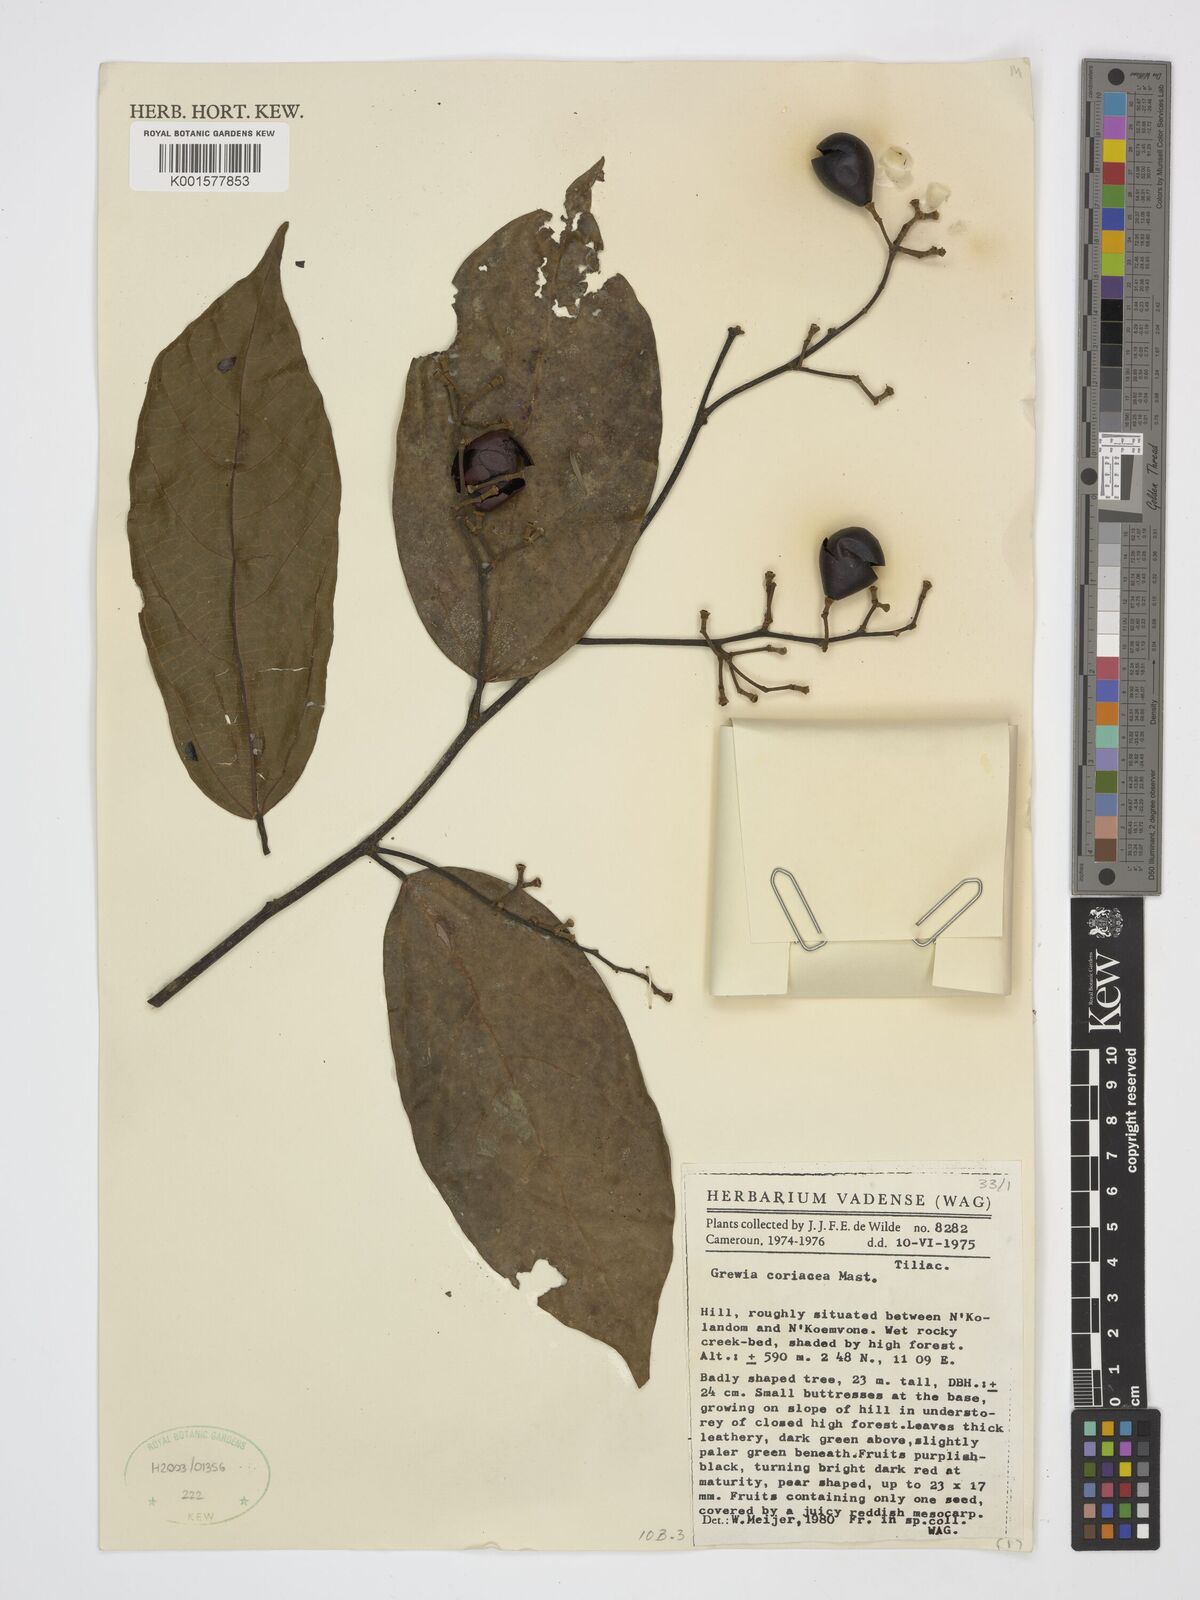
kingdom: Plantae
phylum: Tracheophyta
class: Magnoliopsida
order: Malvales
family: Malvaceae
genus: Microcos
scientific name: Microcos coriacea
